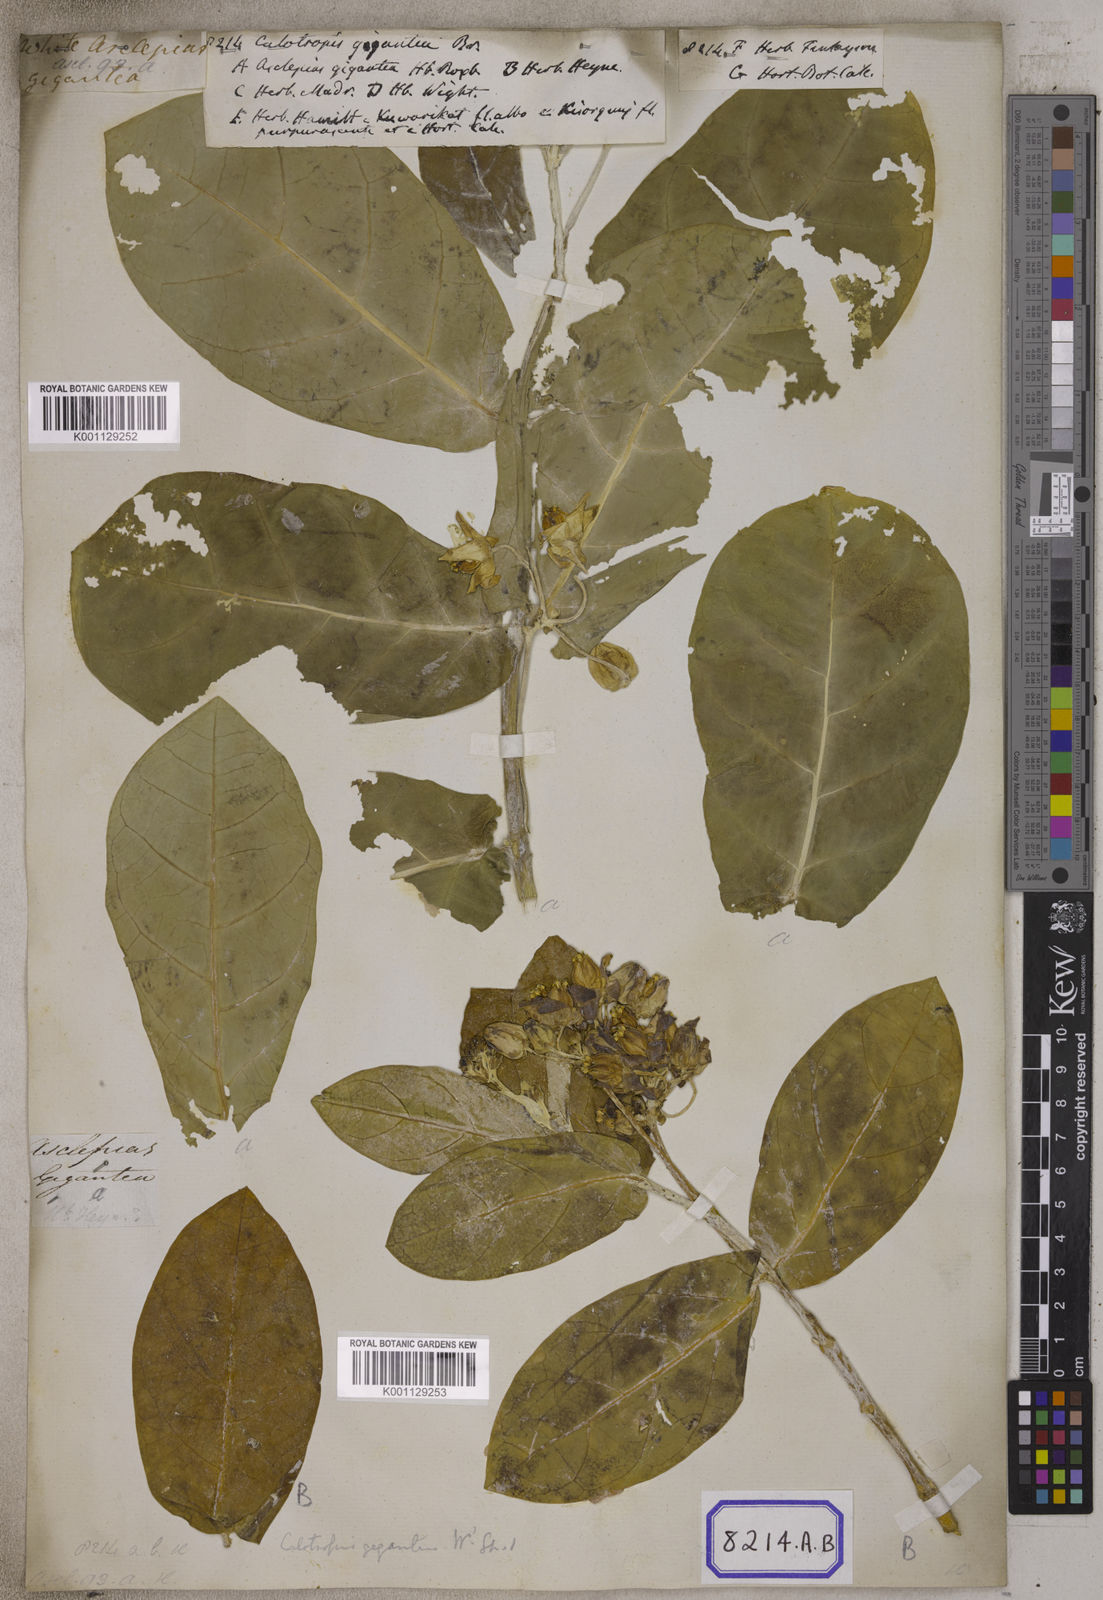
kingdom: Plantae
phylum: Tracheophyta
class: Magnoliopsida
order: Gentianales
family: Apocynaceae
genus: Calotropis
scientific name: Calotropis gigantea
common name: Crown flower
